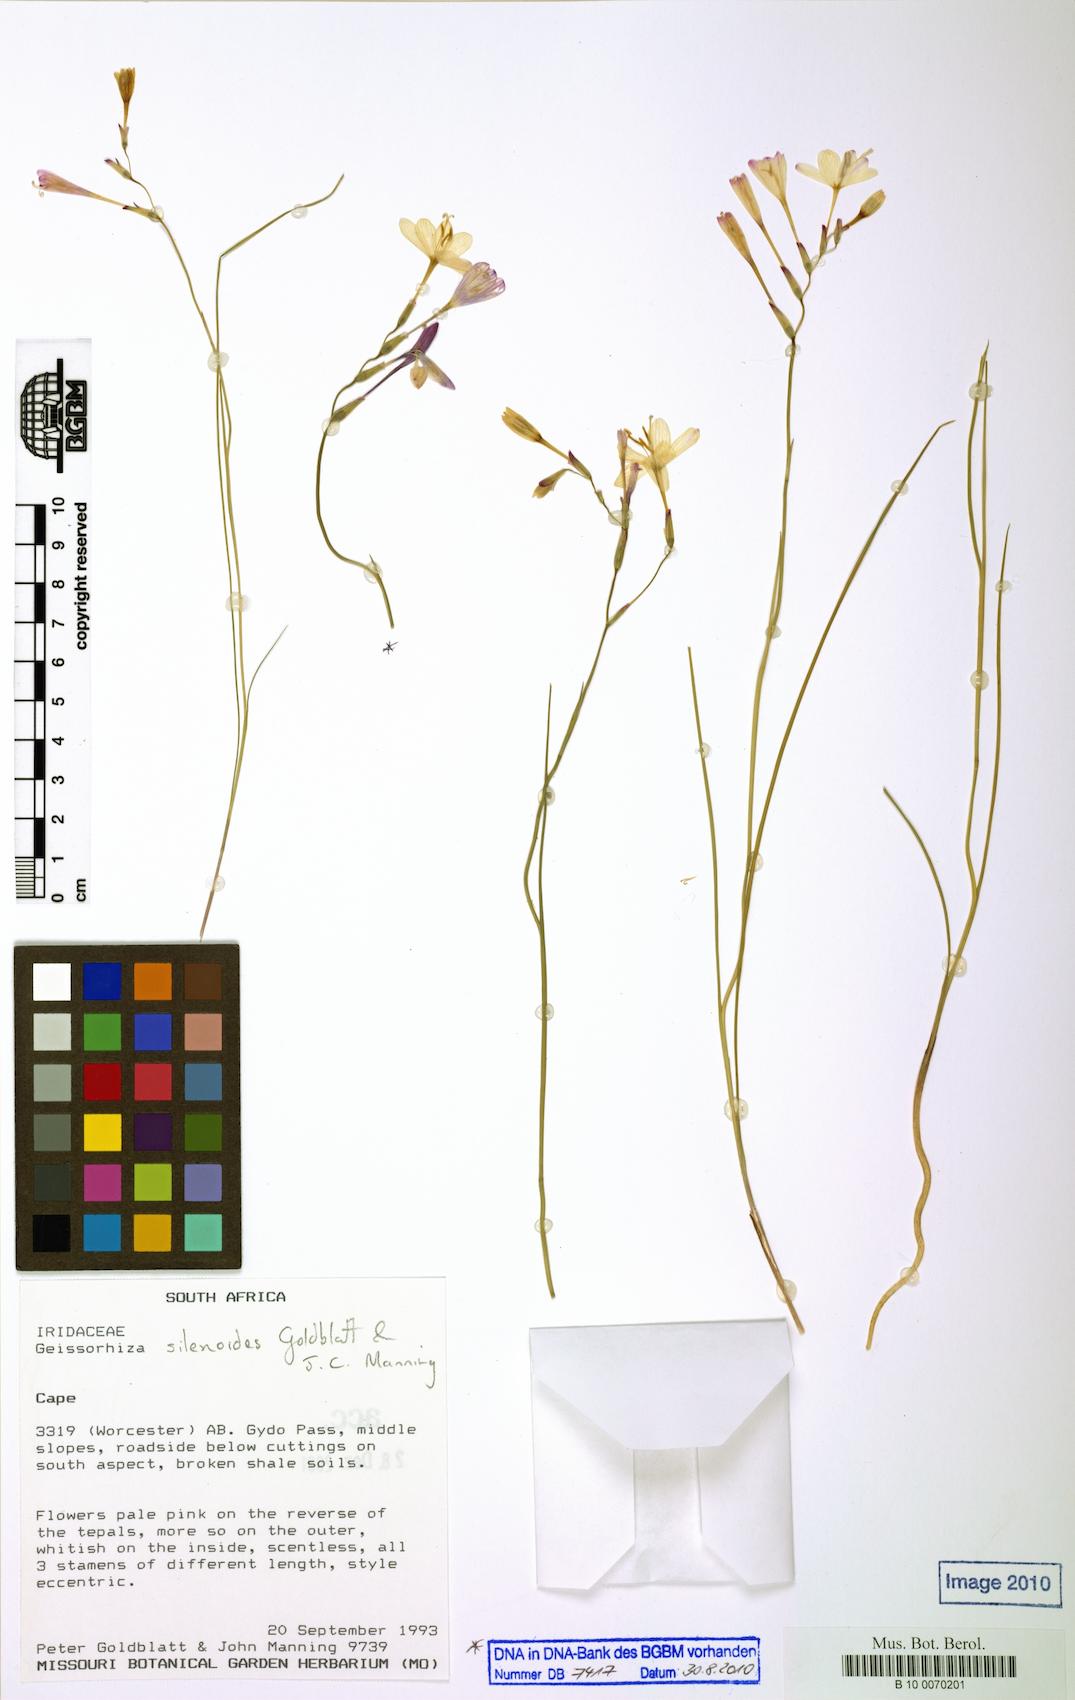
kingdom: Plantae
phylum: Tracheophyta
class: Liliopsida
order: Asparagales
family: Iridaceae
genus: Geissorhiza
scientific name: Geissorhiza silenoides
